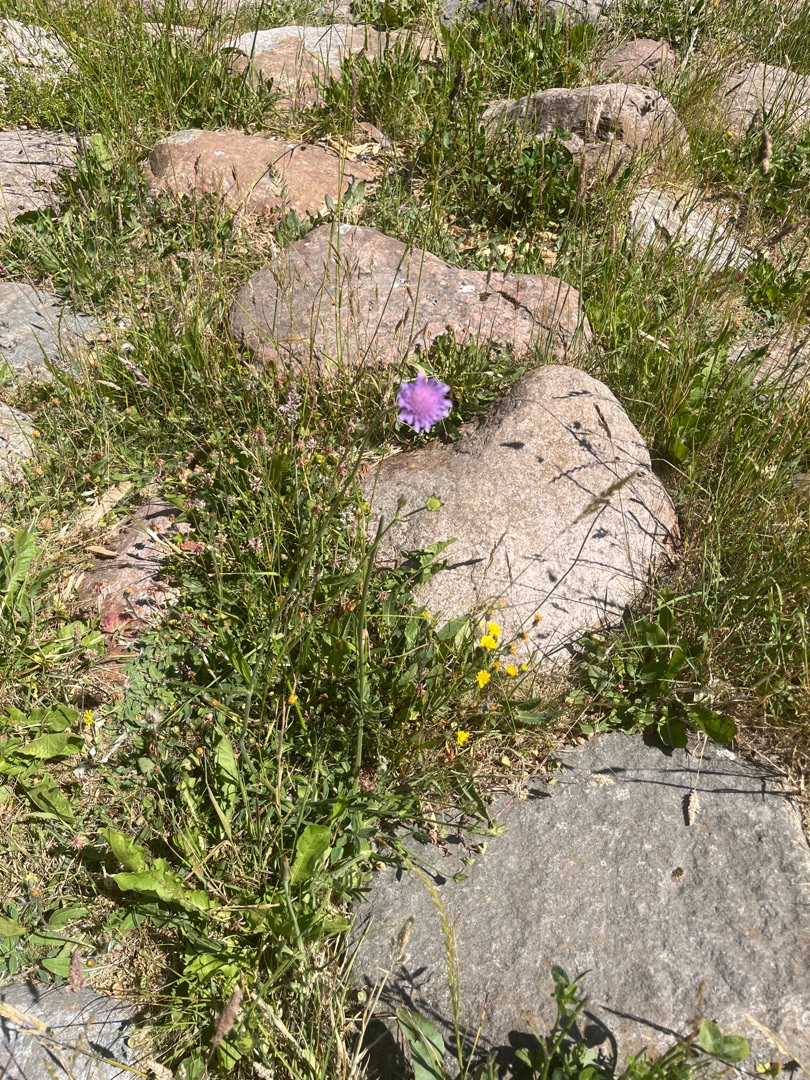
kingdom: Plantae
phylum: Tracheophyta
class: Magnoliopsida
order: Dipsacales
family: Caprifoliaceae
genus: Knautia
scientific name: Knautia arvensis
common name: Blåhat
